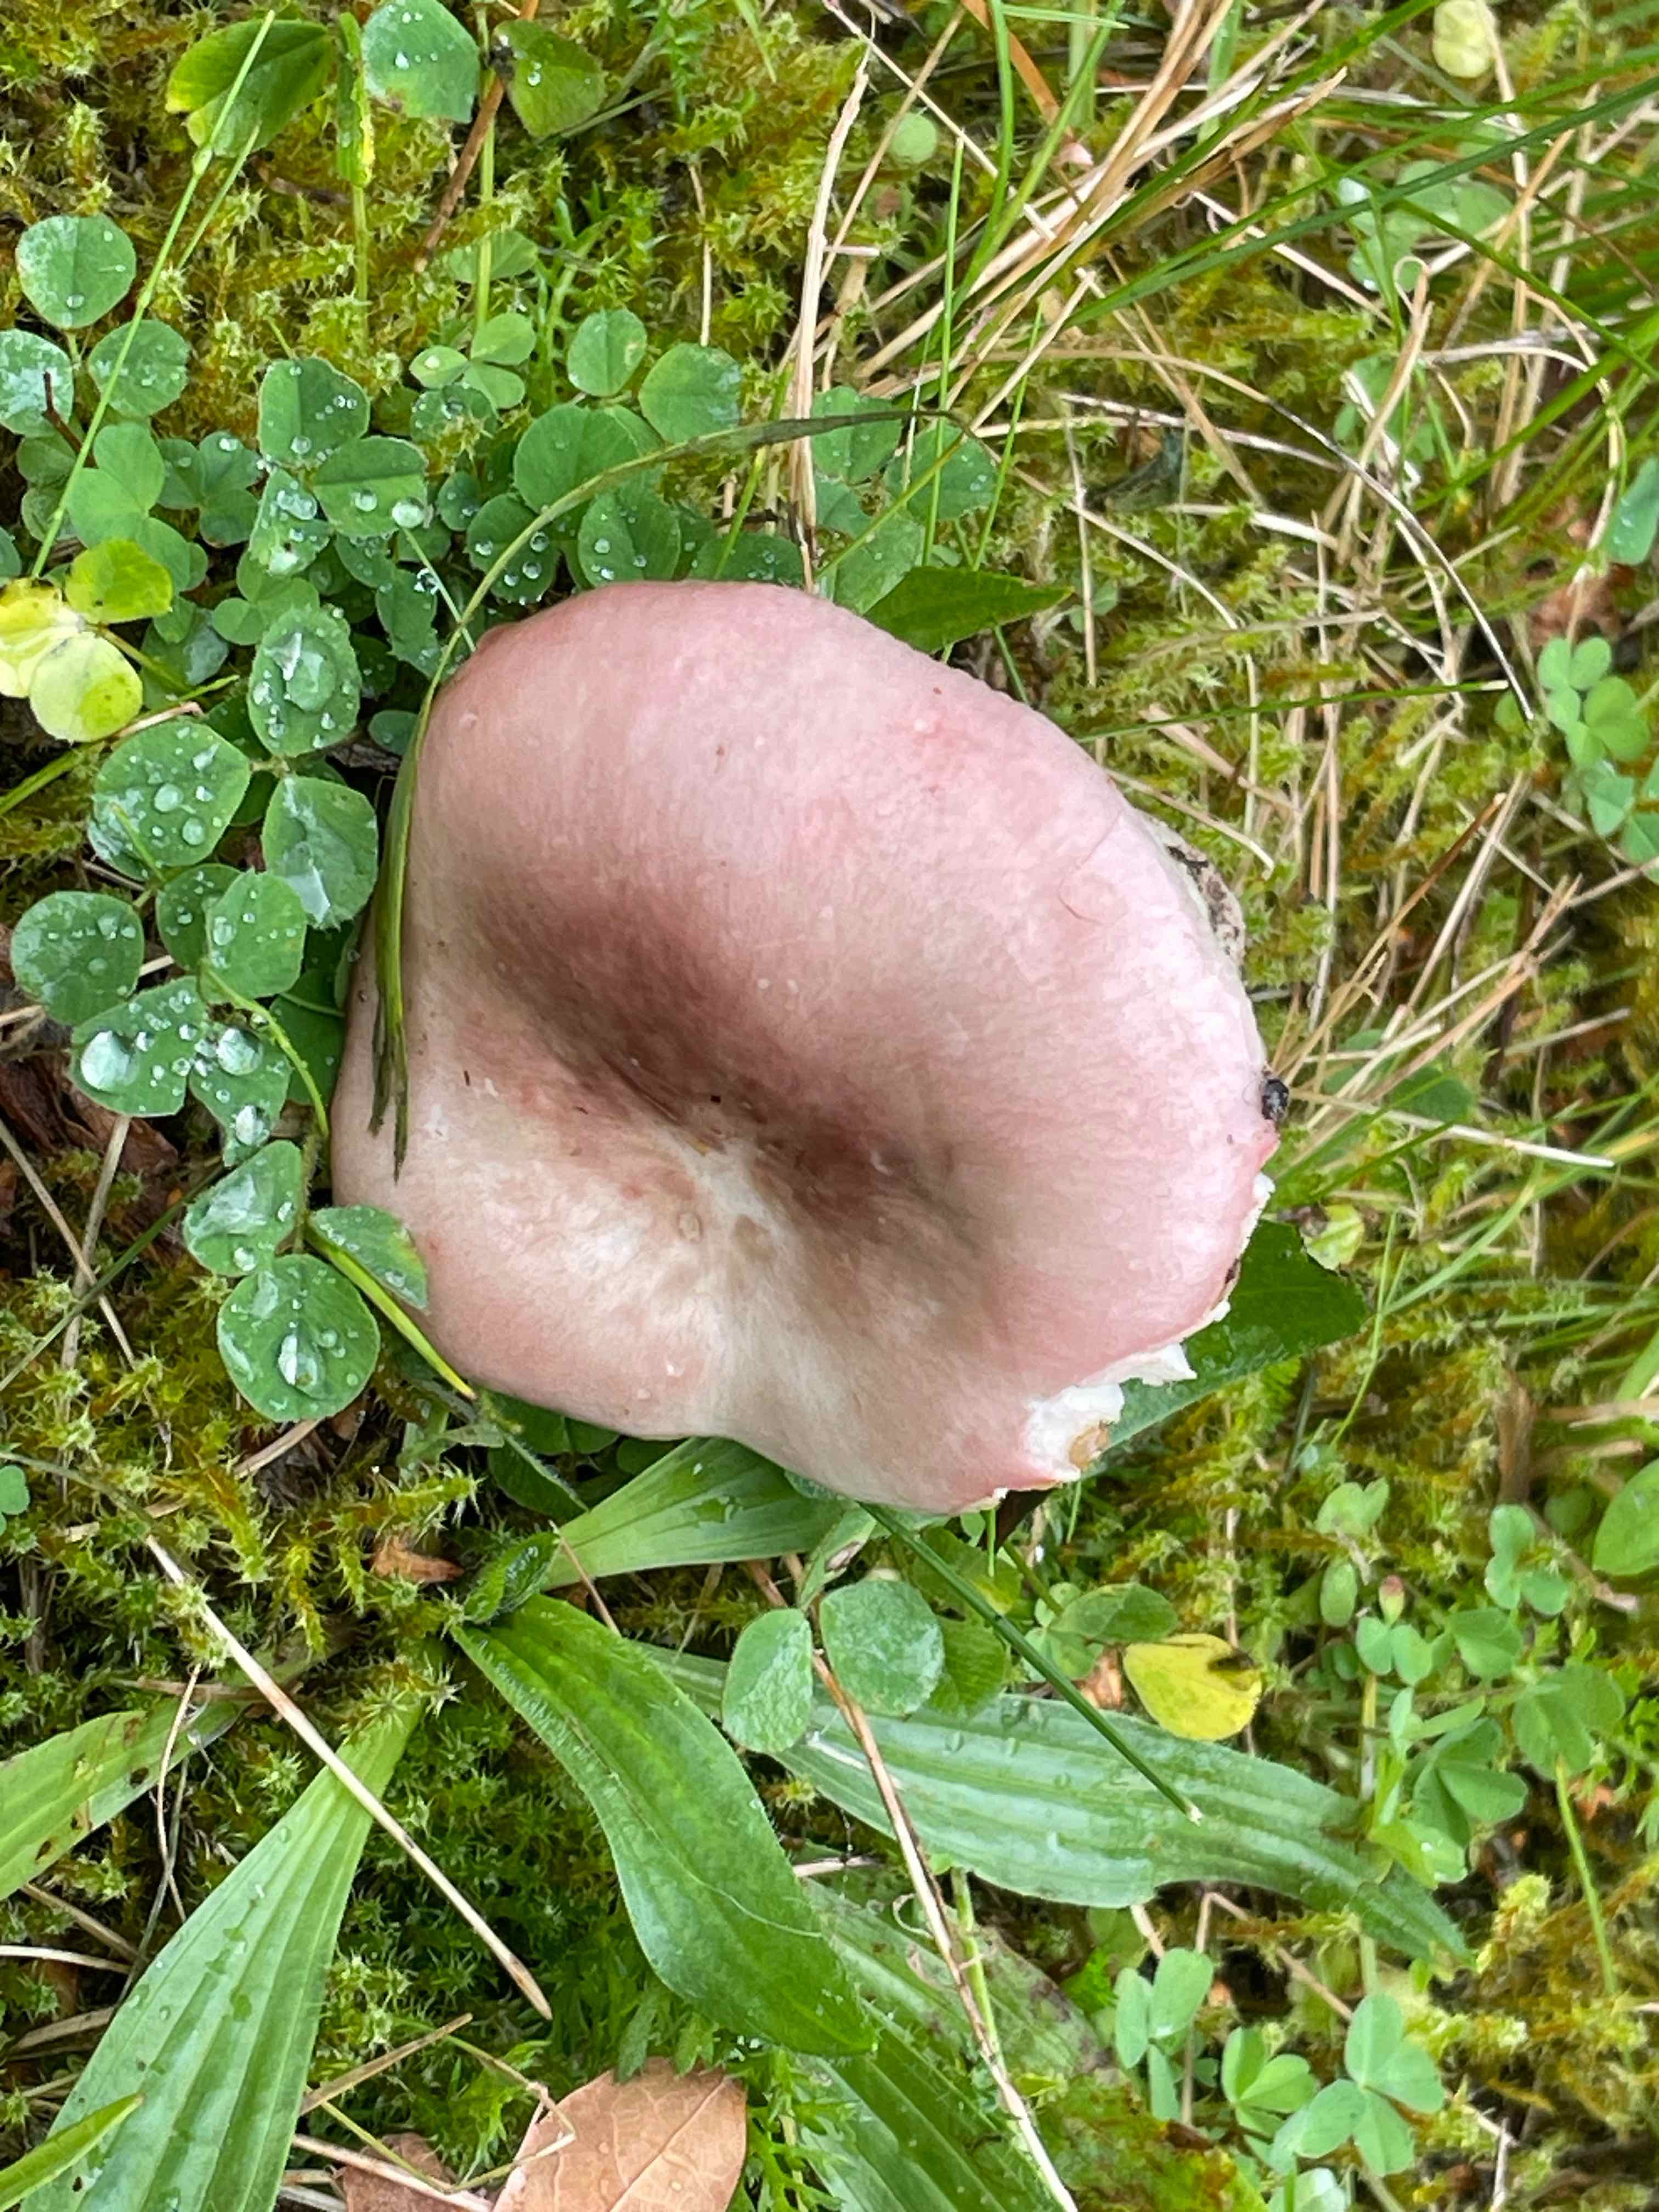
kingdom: Fungi
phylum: Basidiomycota
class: Agaricomycetes
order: Russulales
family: Russulaceae
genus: Russula
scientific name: Russula depallens
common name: falmende skørhat
